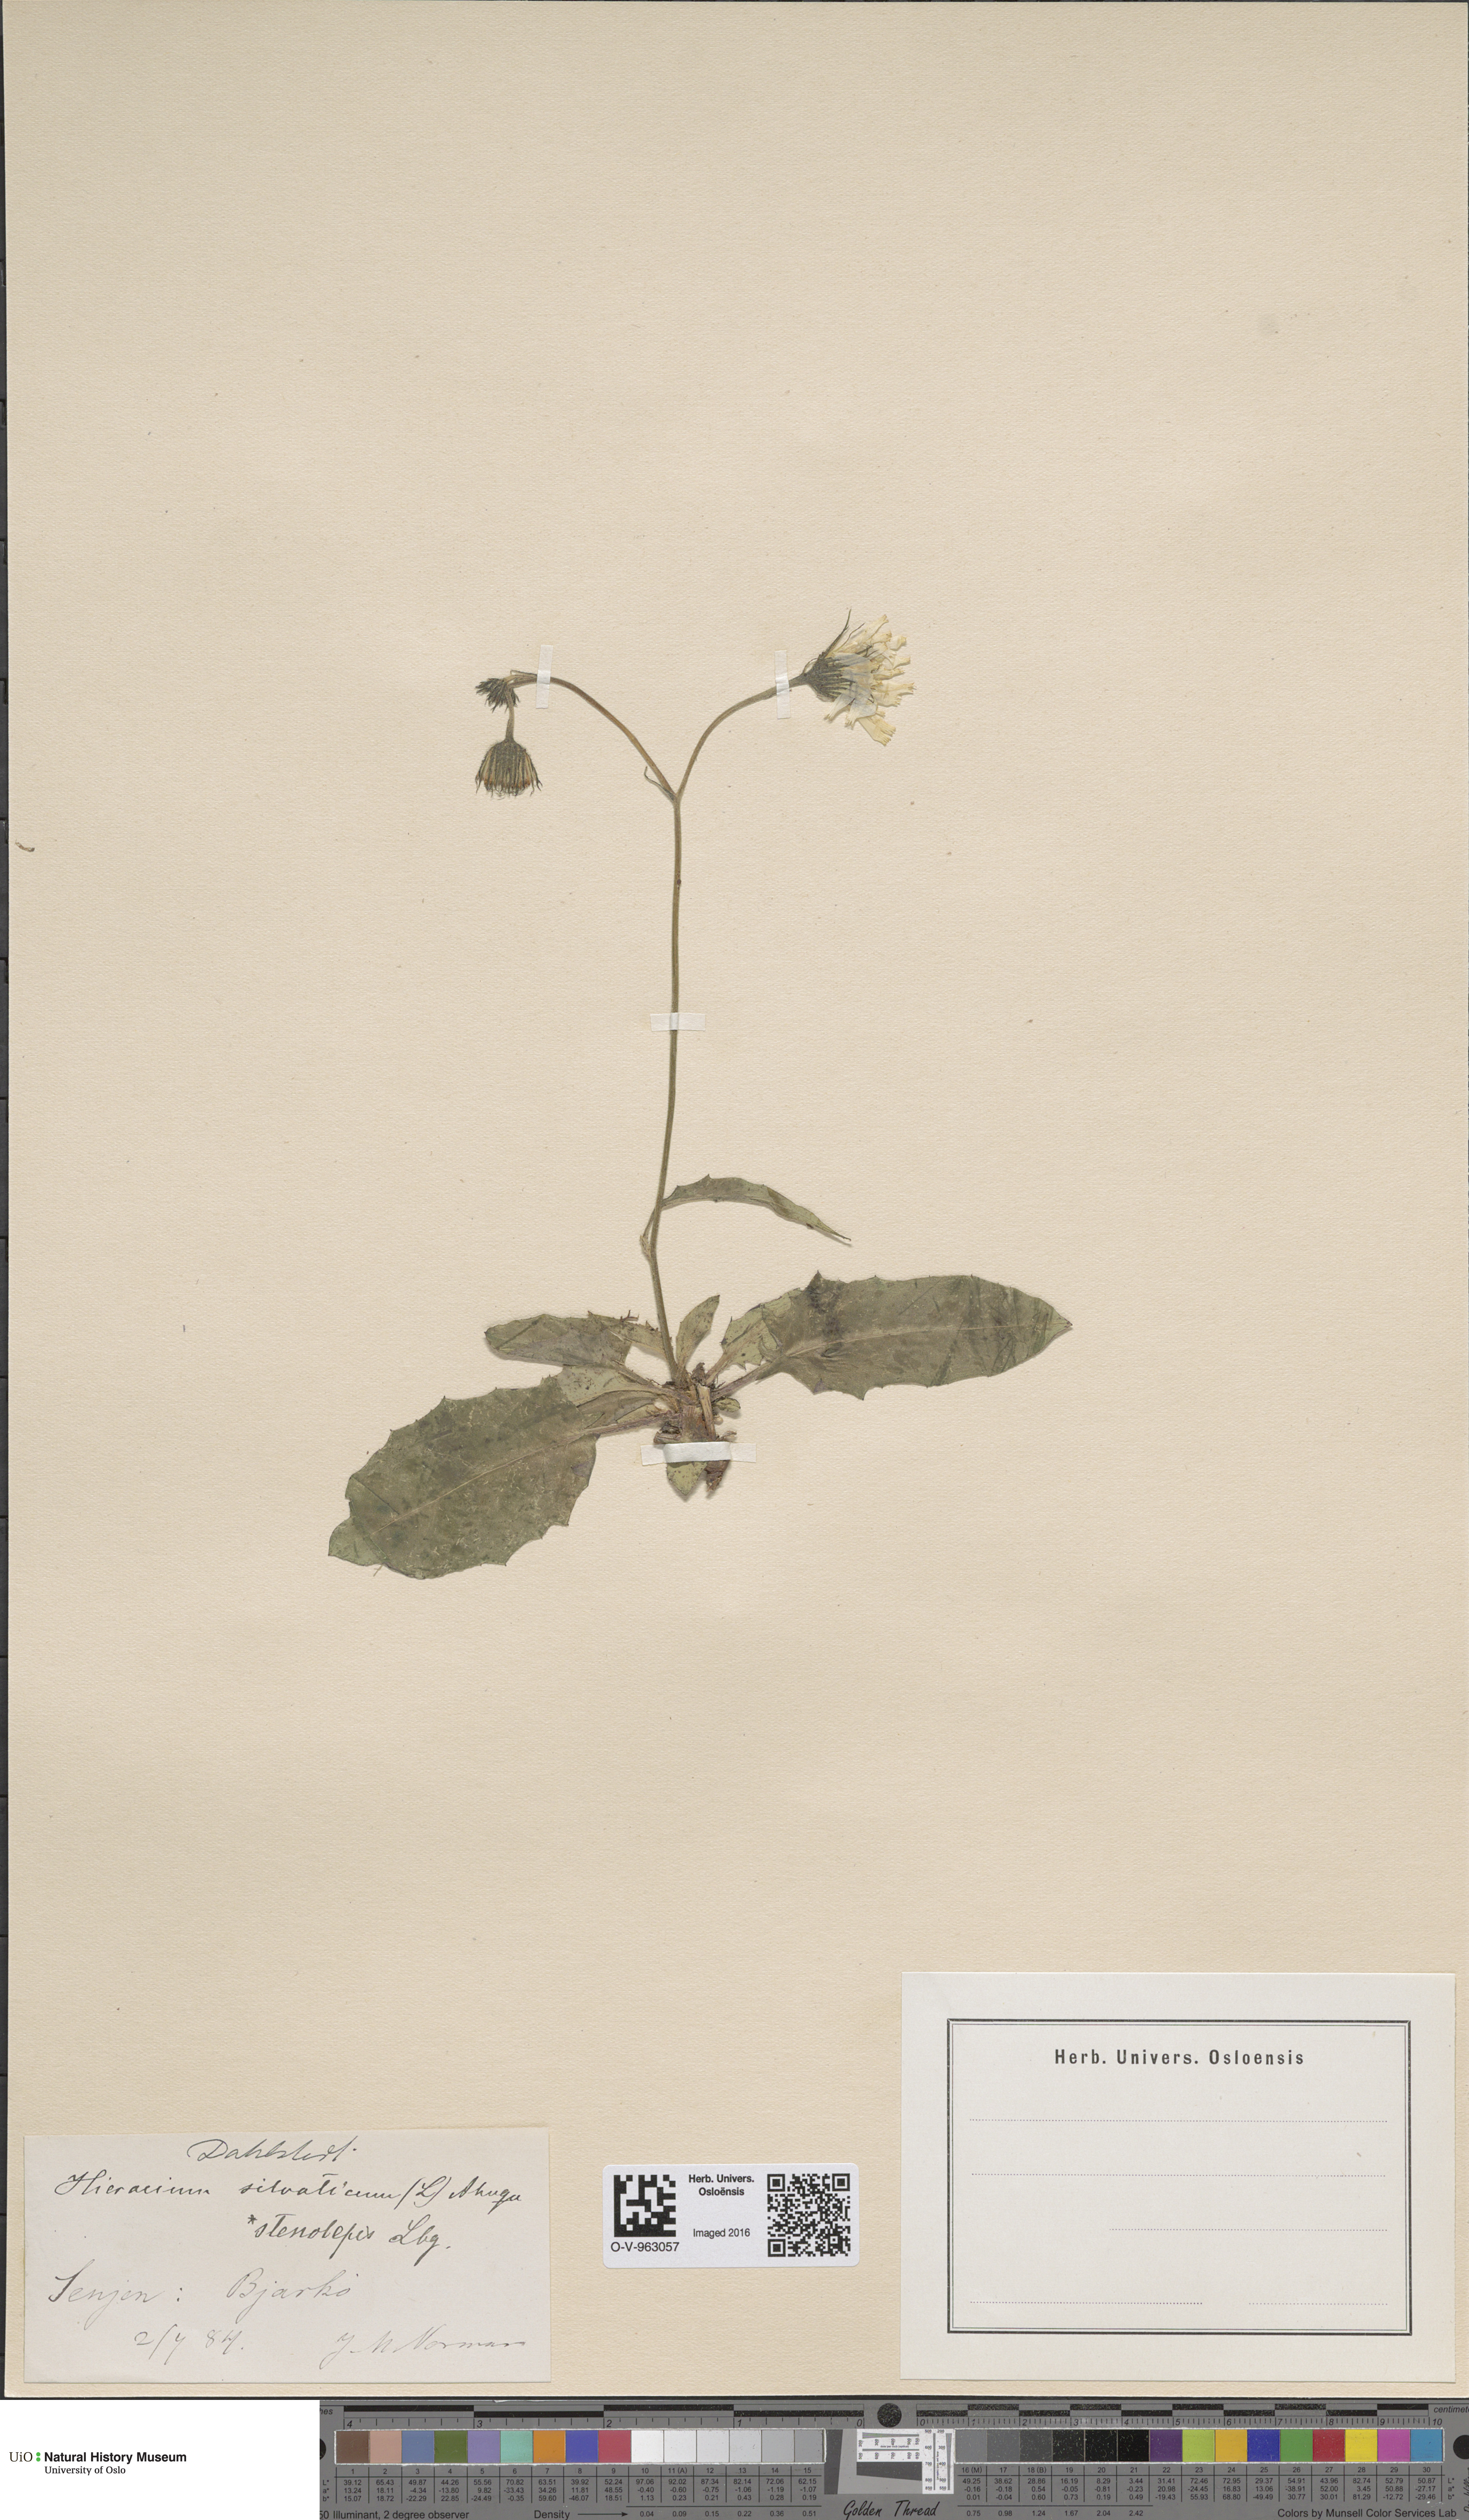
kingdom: Plantae
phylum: Tracheophyta
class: Magnoliopsida
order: Asterales
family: Asteraceae
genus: Hieracium
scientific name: Hieracium bifidum
